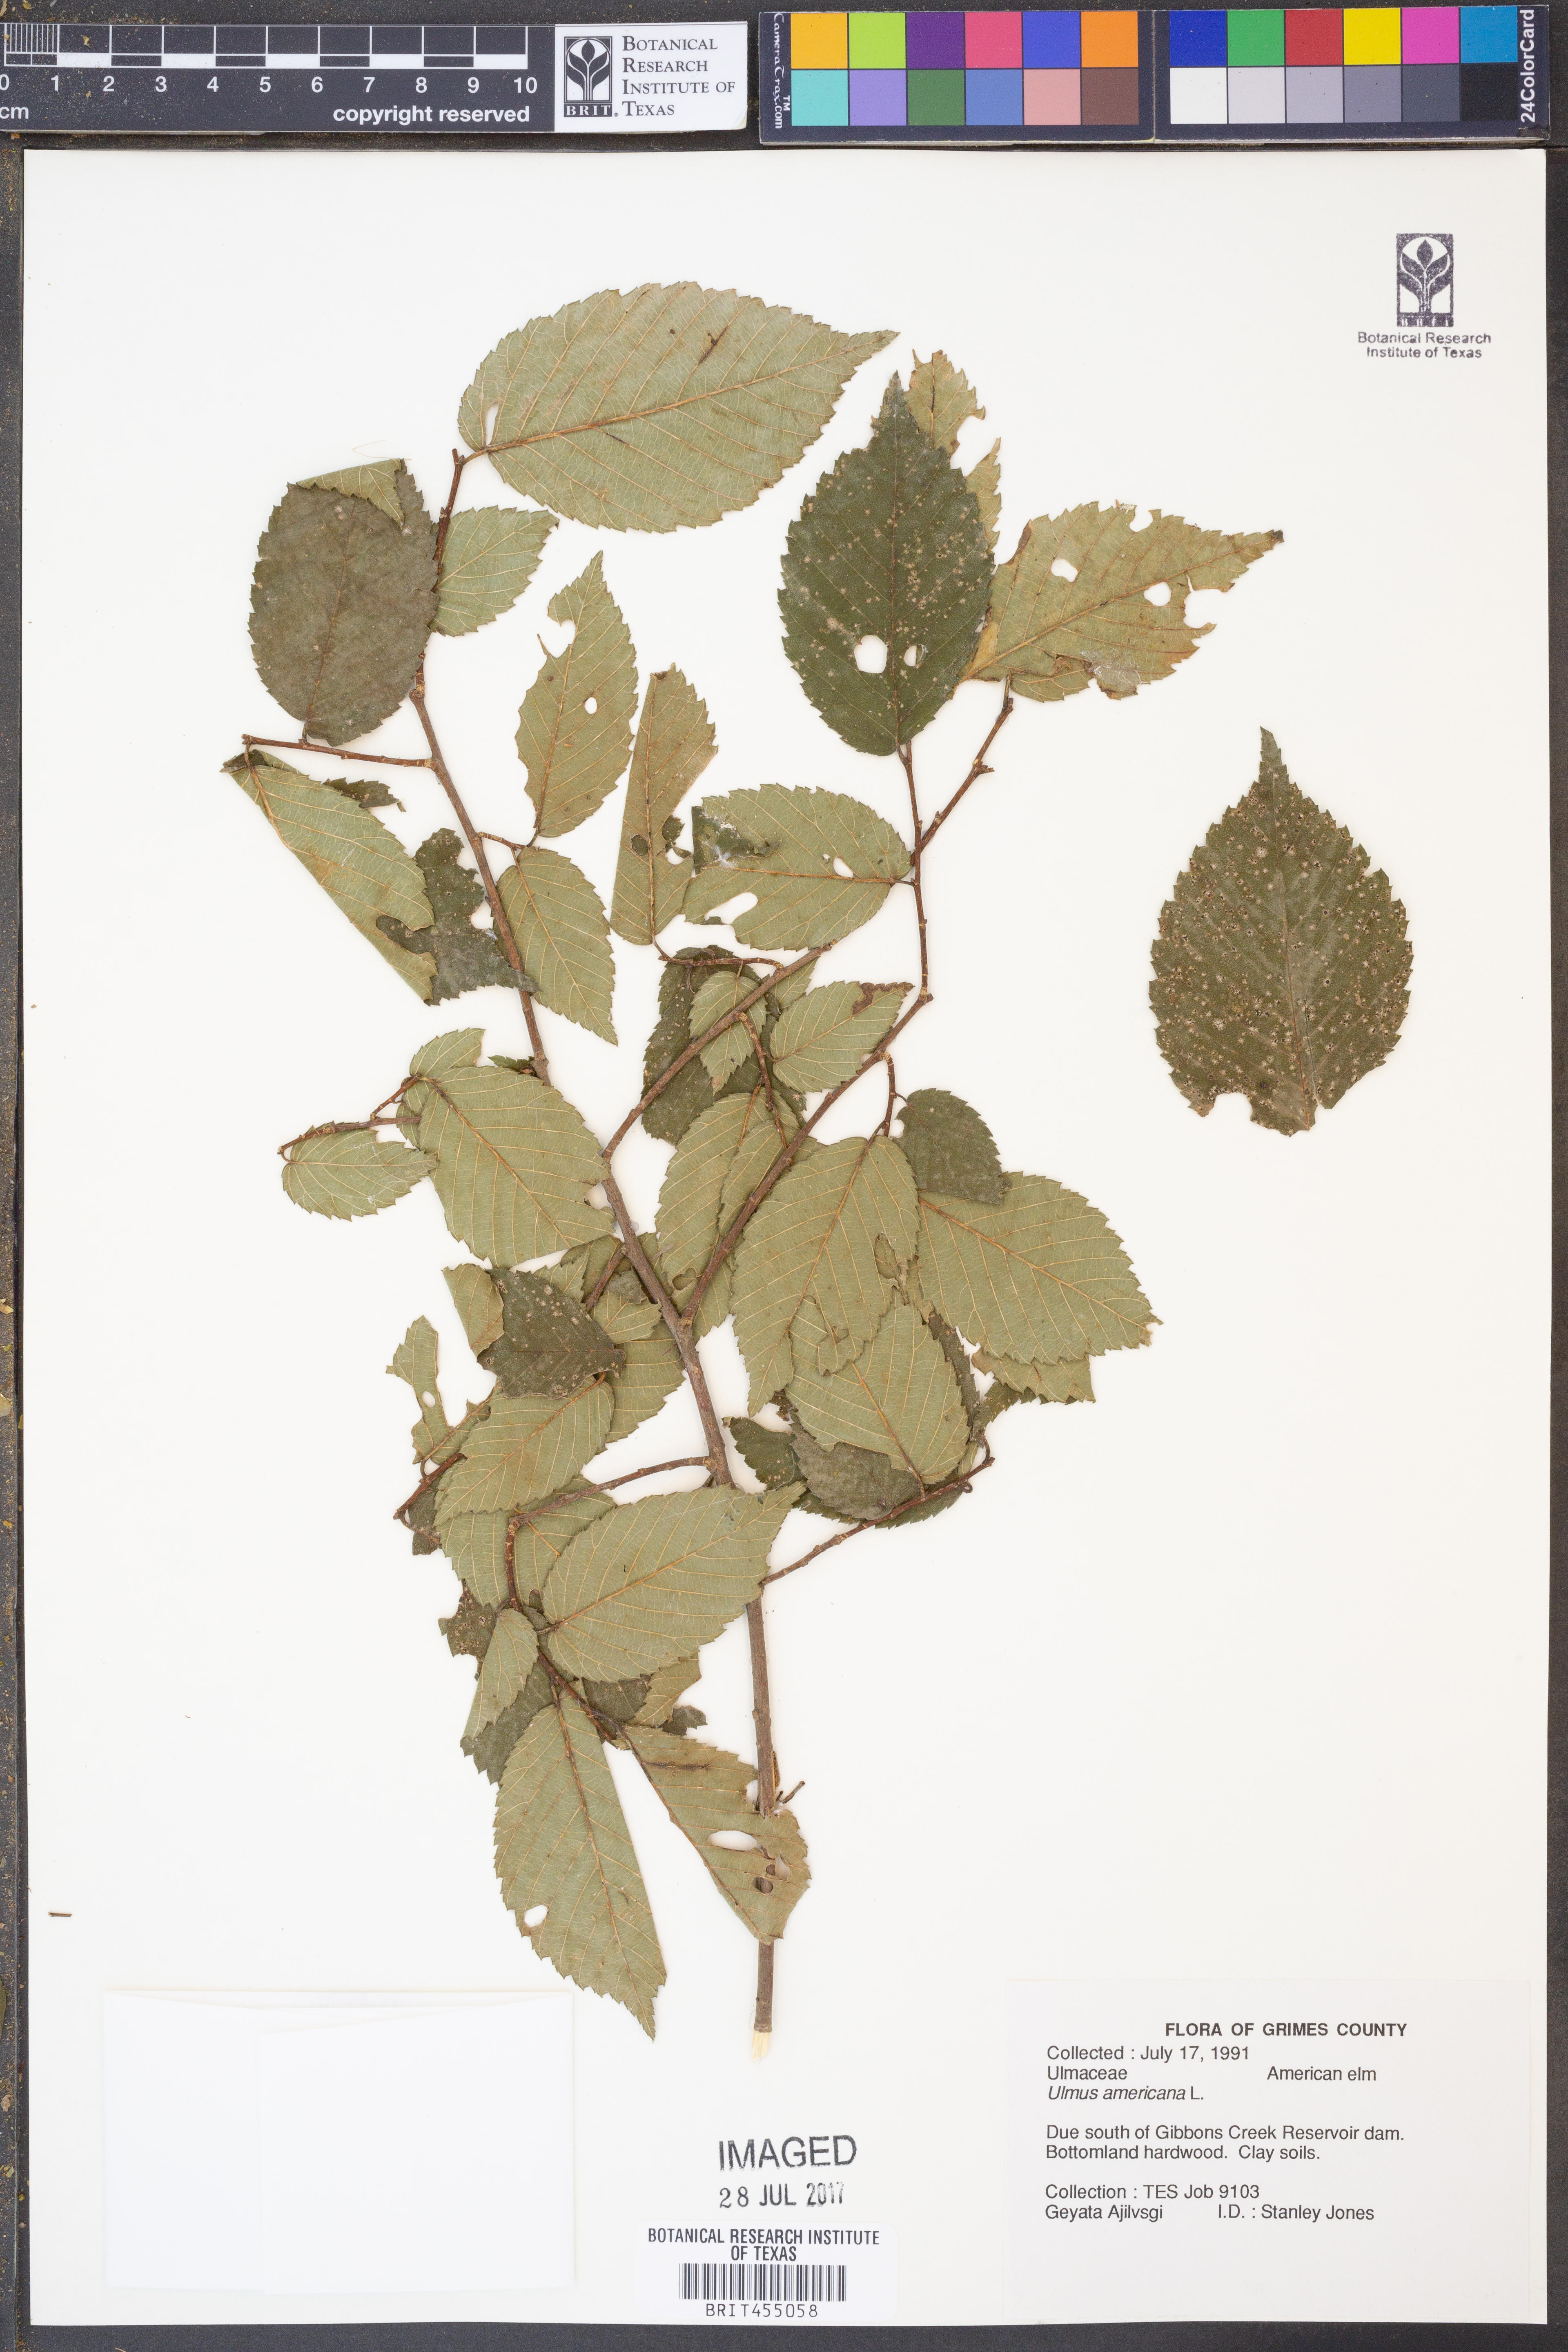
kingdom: Plantae
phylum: Tracheophyta
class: Magnoliopsida
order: Rosales
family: Ulmaceae
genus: Ulmus
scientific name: Ulmus americana
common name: American elm
